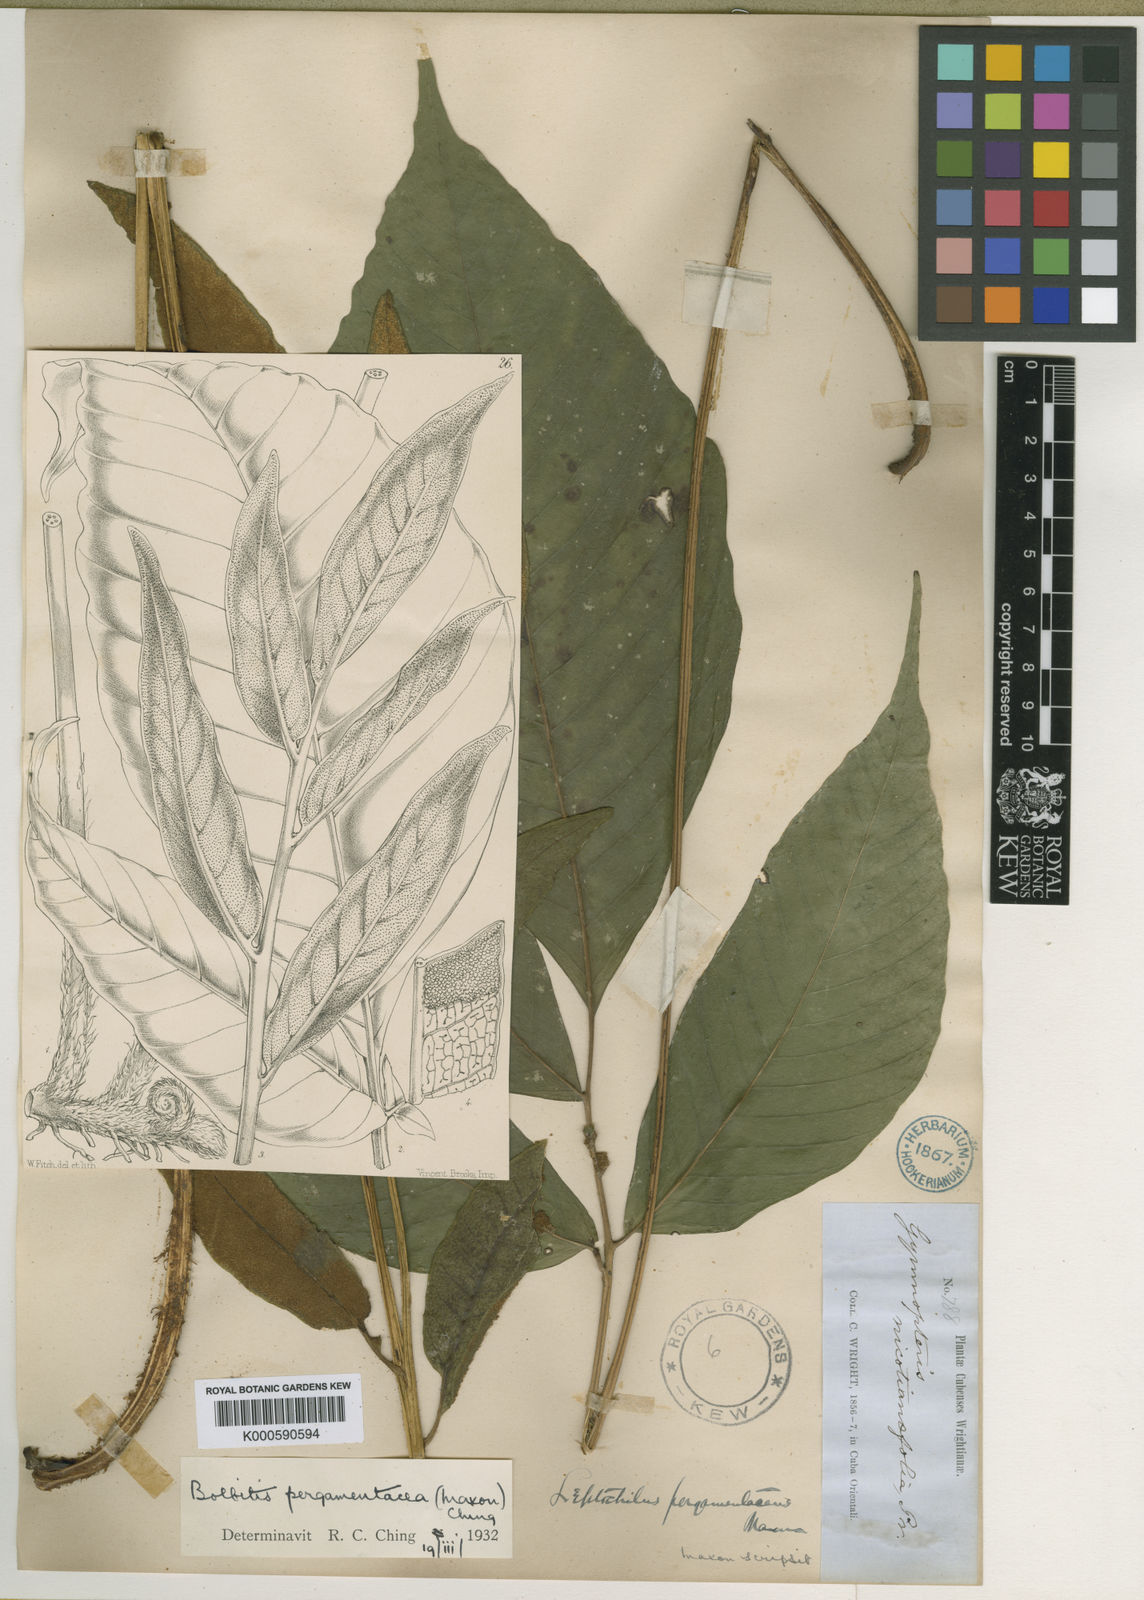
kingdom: Plantae
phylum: Tracheophyta
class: Polypodiopsida
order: Polypodiales
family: Dryopteridaceae
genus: Mickelia
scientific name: Mickelia pergamentacea
